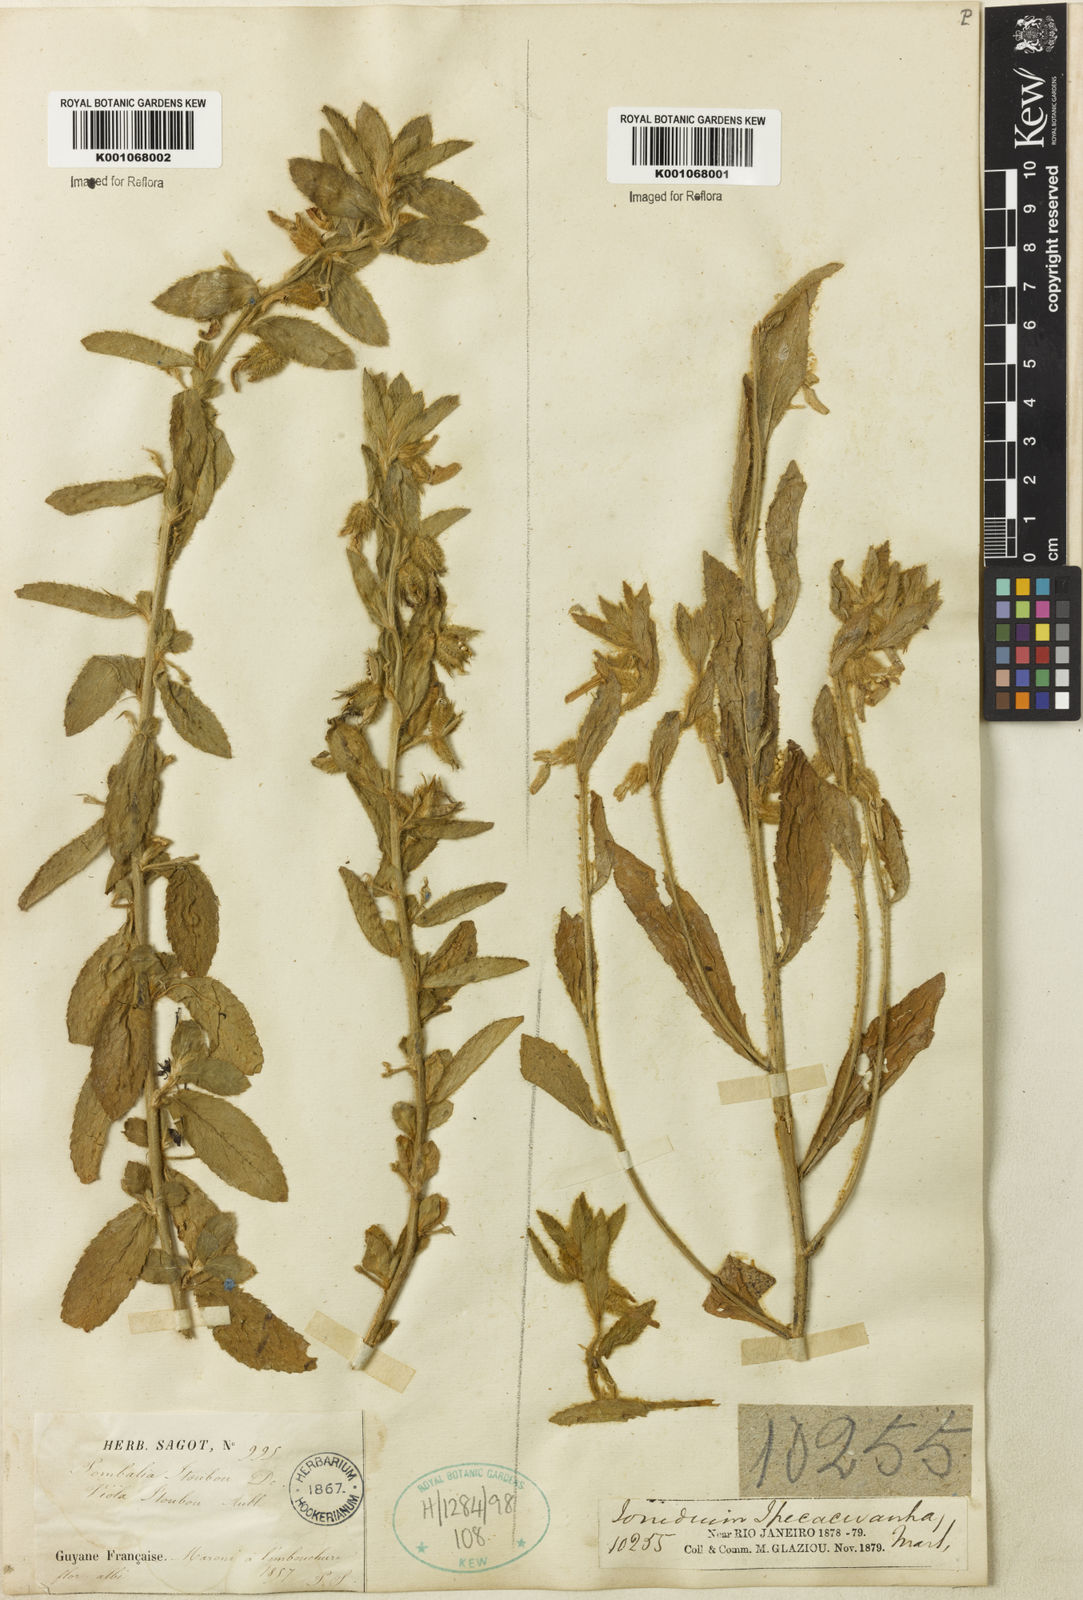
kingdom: Plantae
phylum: Tracheophyta
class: Magnoliopsida
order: Malpighiales
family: Violaceae
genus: Hybanthus
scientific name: Hybanthus
